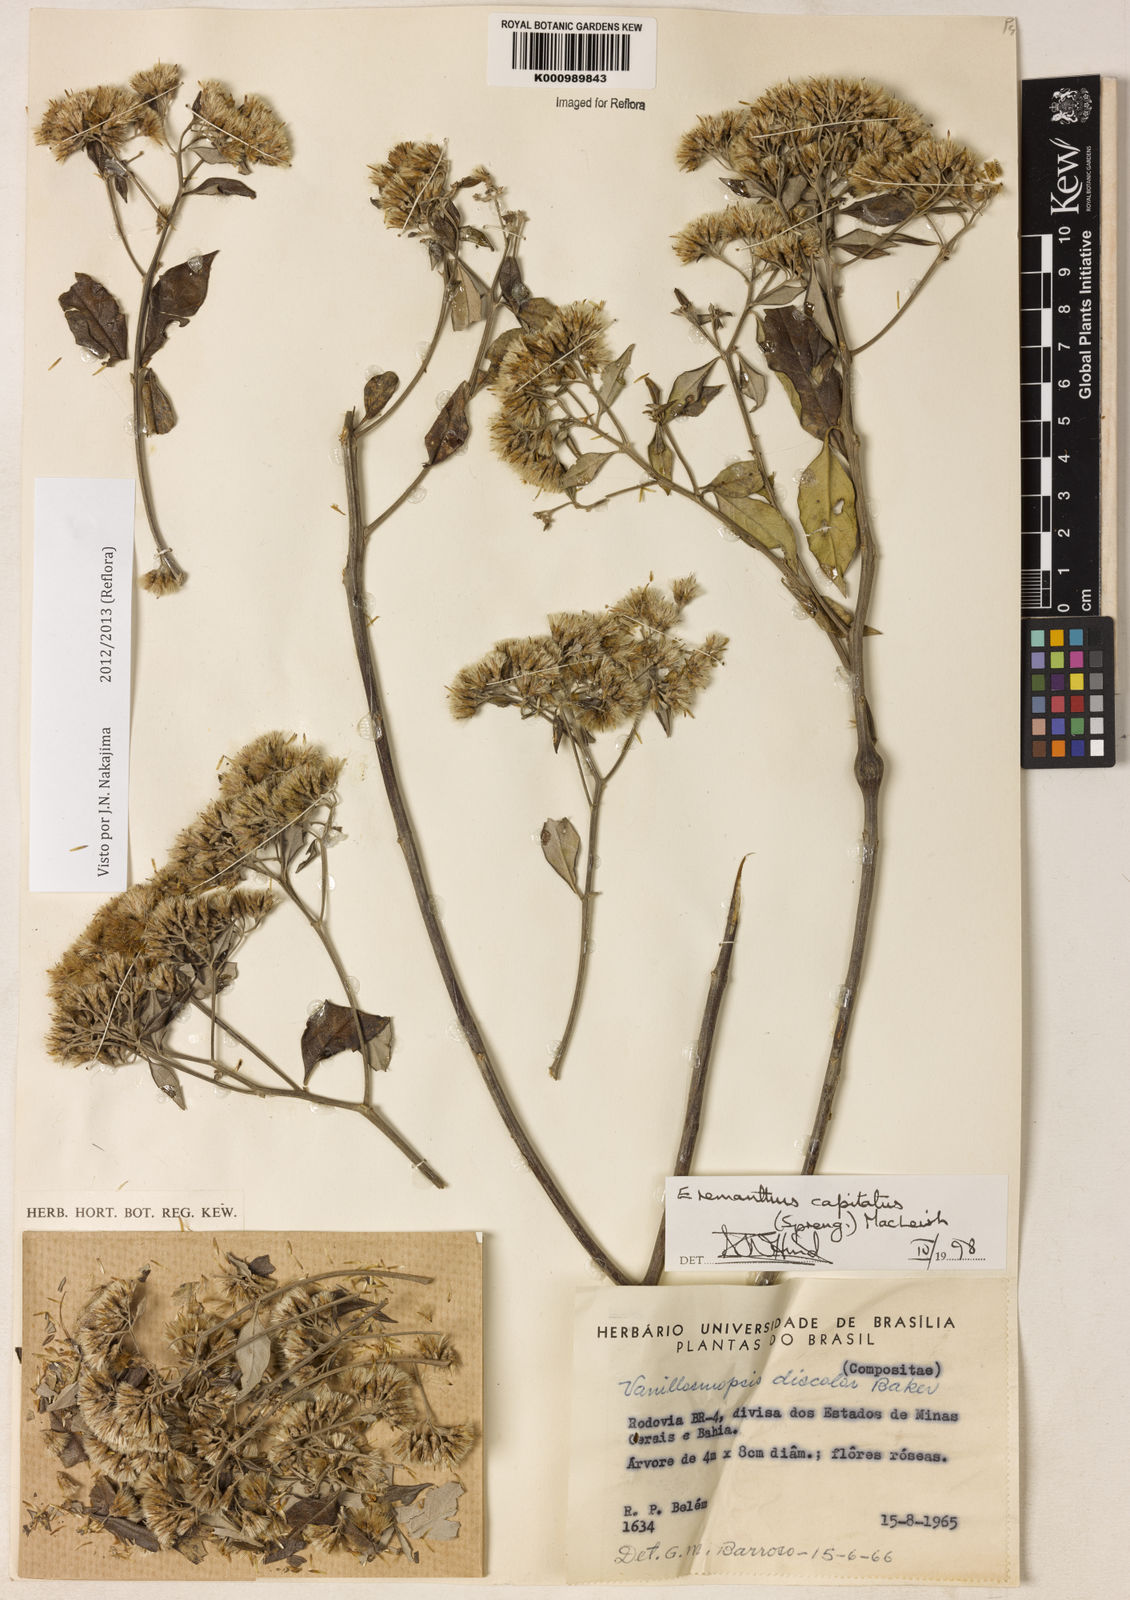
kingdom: Plantae
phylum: Tracheophyta
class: Magnoliopsida
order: Asterales
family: Asteraceae
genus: Eremanthus
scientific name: Eremanthus capitatus
